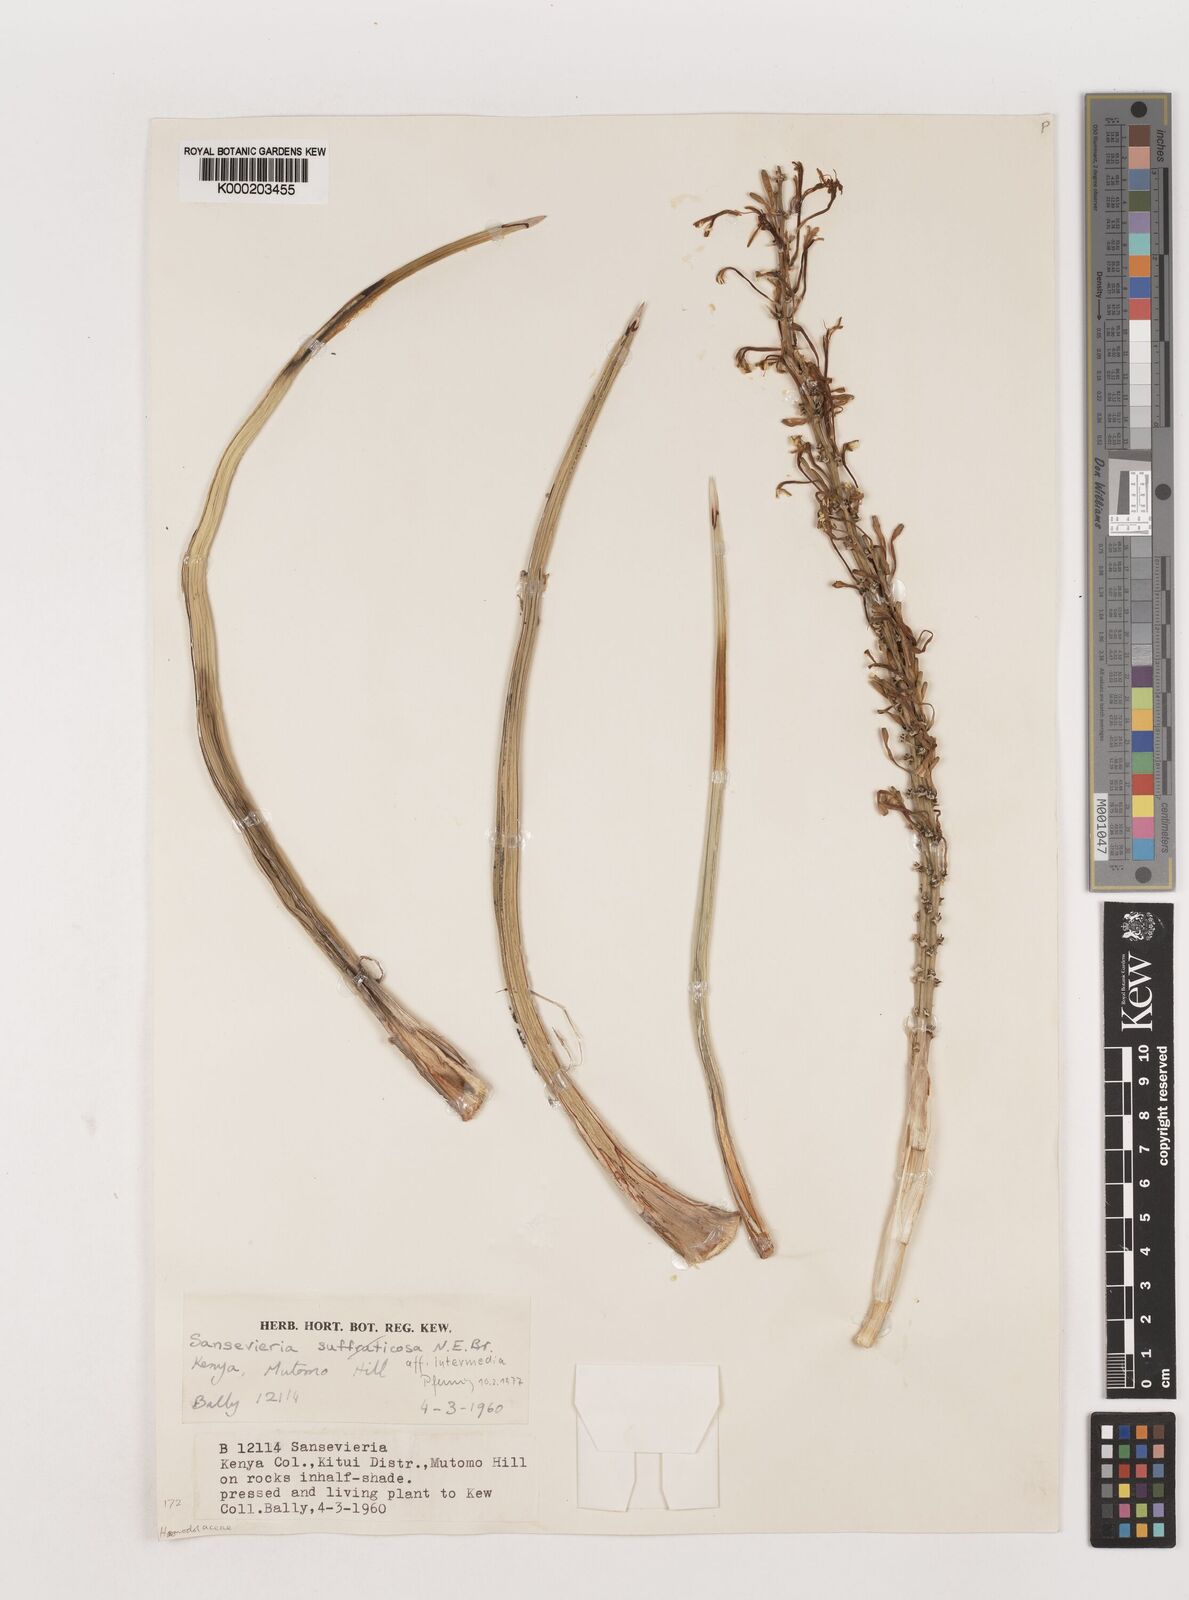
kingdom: Plantae
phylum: Tracheophyta
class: Liliopsida
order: Asparagales
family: Asparagaceae
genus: Dracaena
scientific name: Dracaena volkensii
